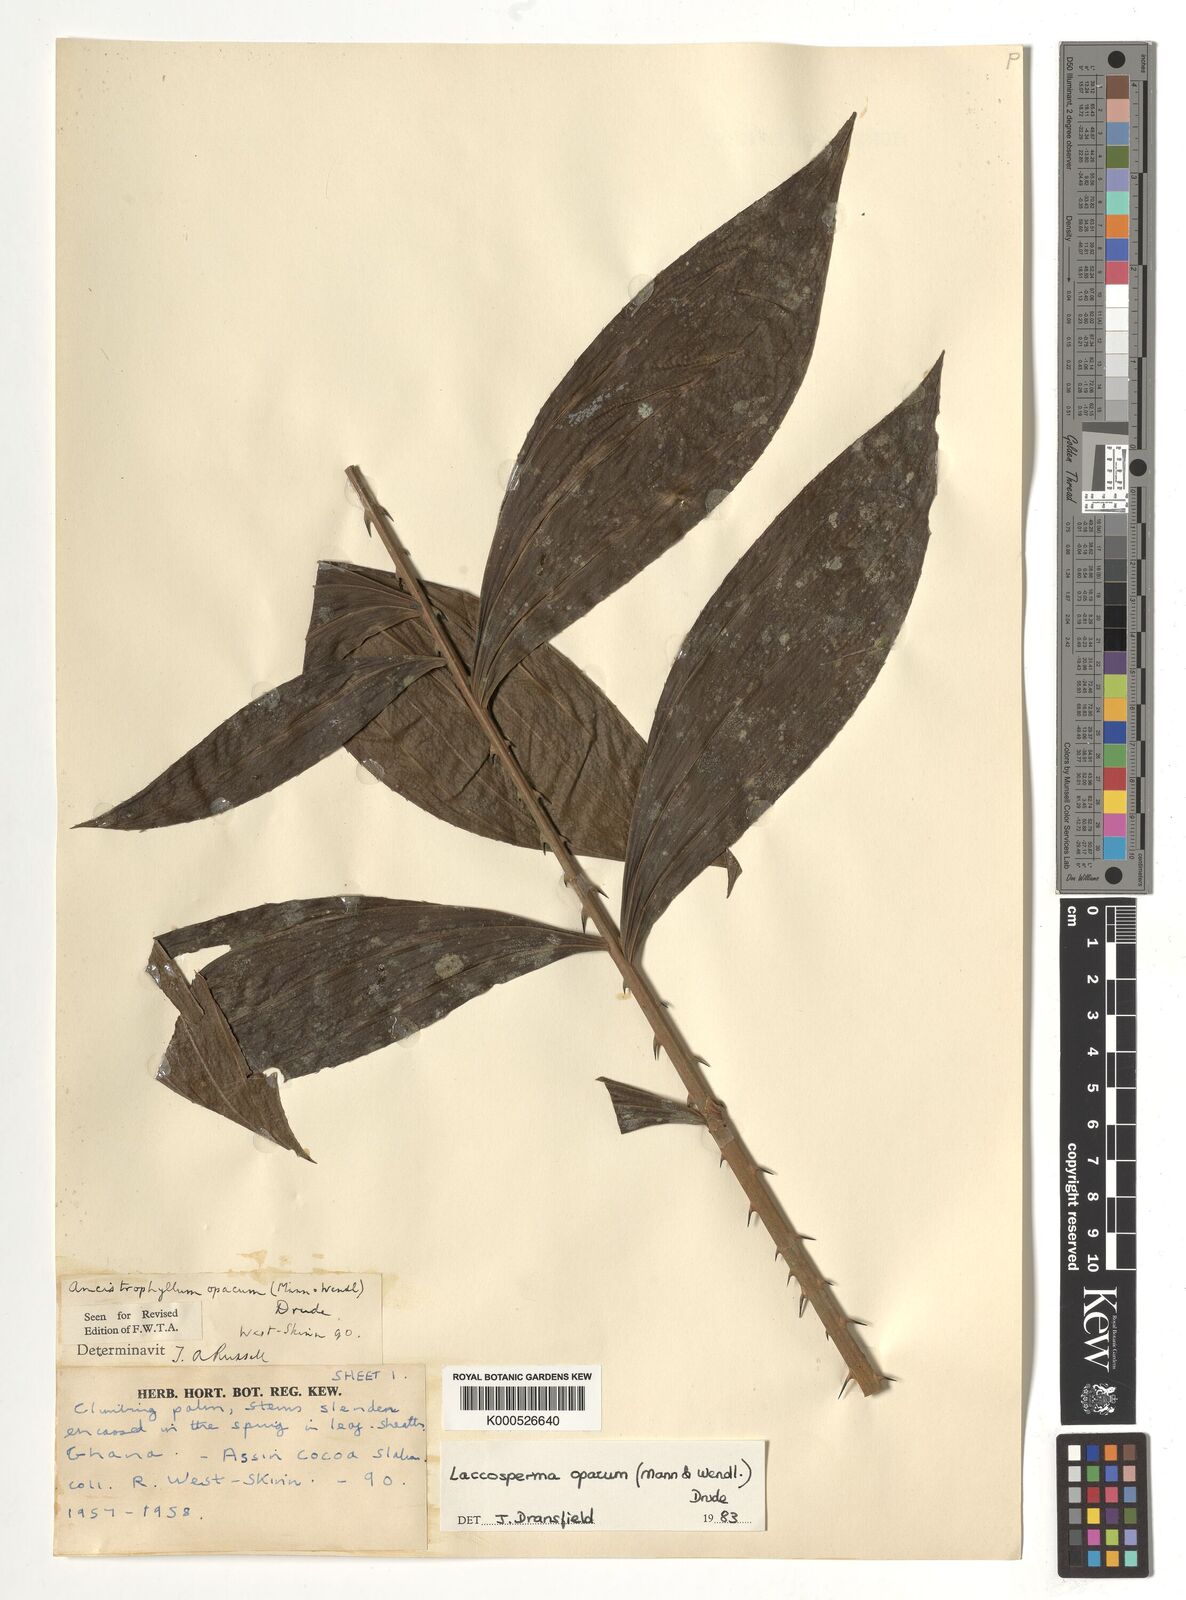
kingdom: Plantae
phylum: Tracheophyta
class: Liliopsida
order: Arecales
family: Arecaceae
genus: Laccosperma
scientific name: Laccosperma opacum
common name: Rattan
